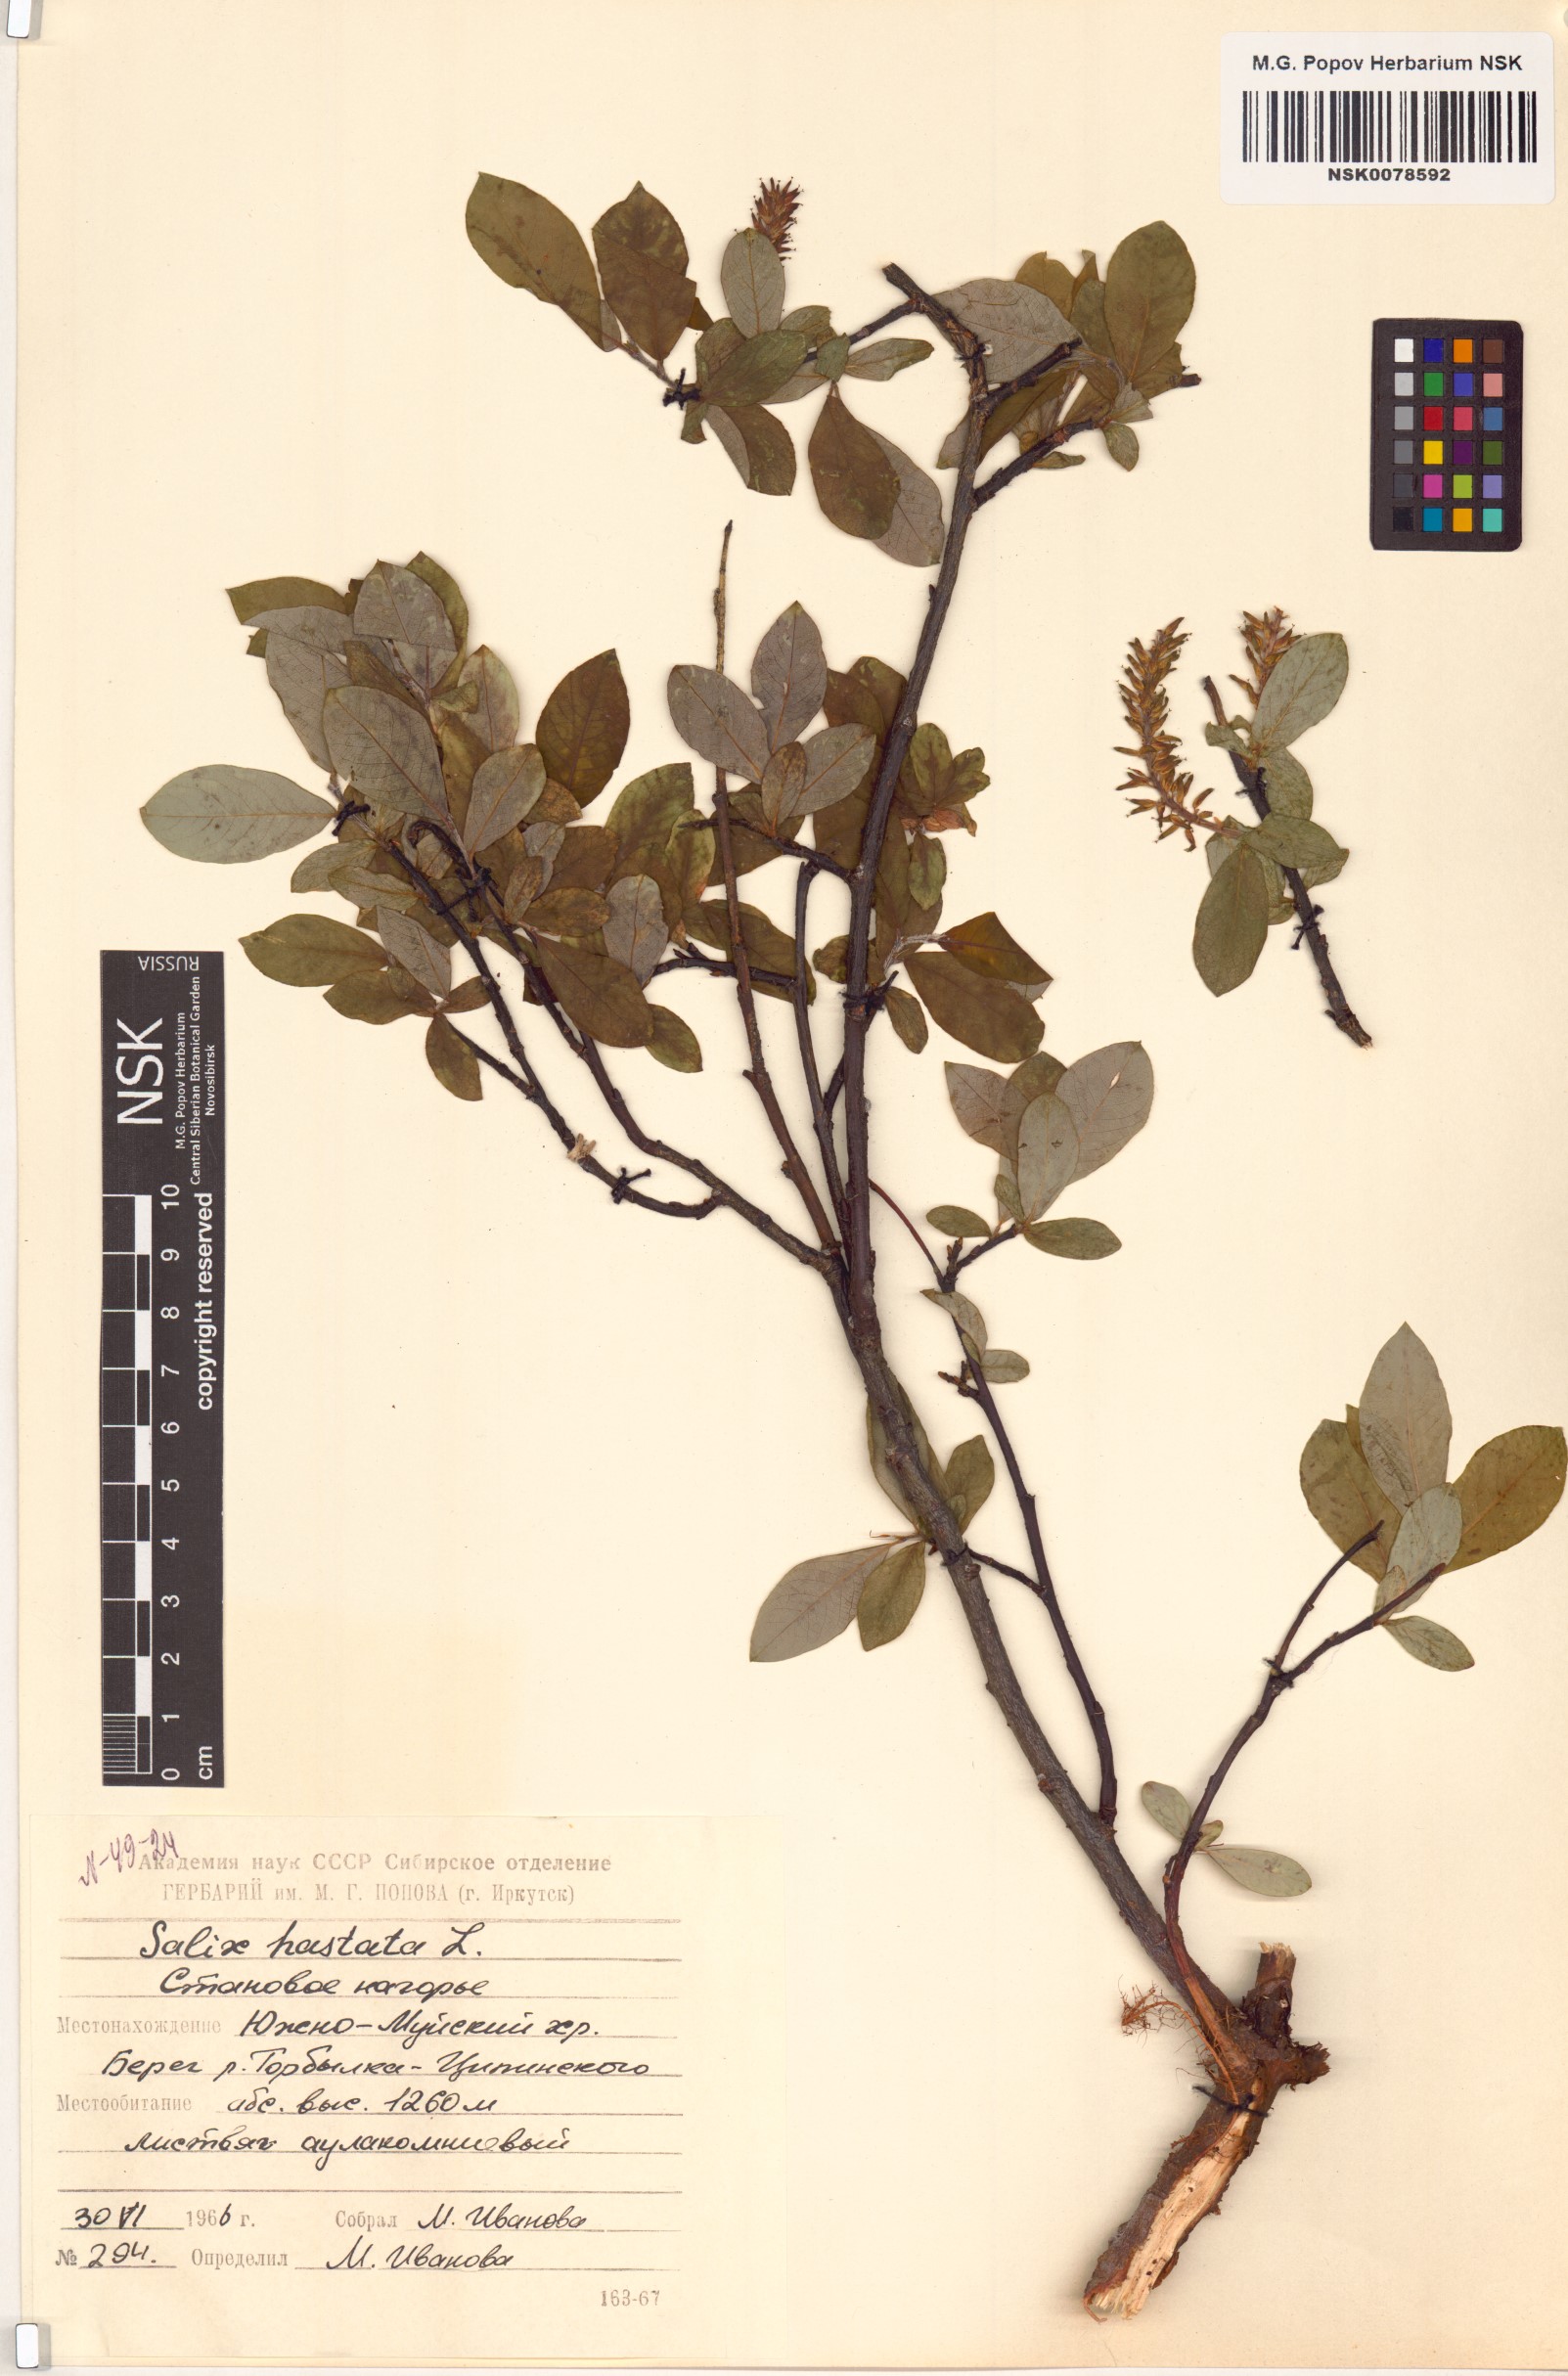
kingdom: Plantae
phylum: Tracheophyta
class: Magnoliopsida
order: Malpighiales
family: Salicaceae
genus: Salix
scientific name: Salix hastata
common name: Halberd willow
